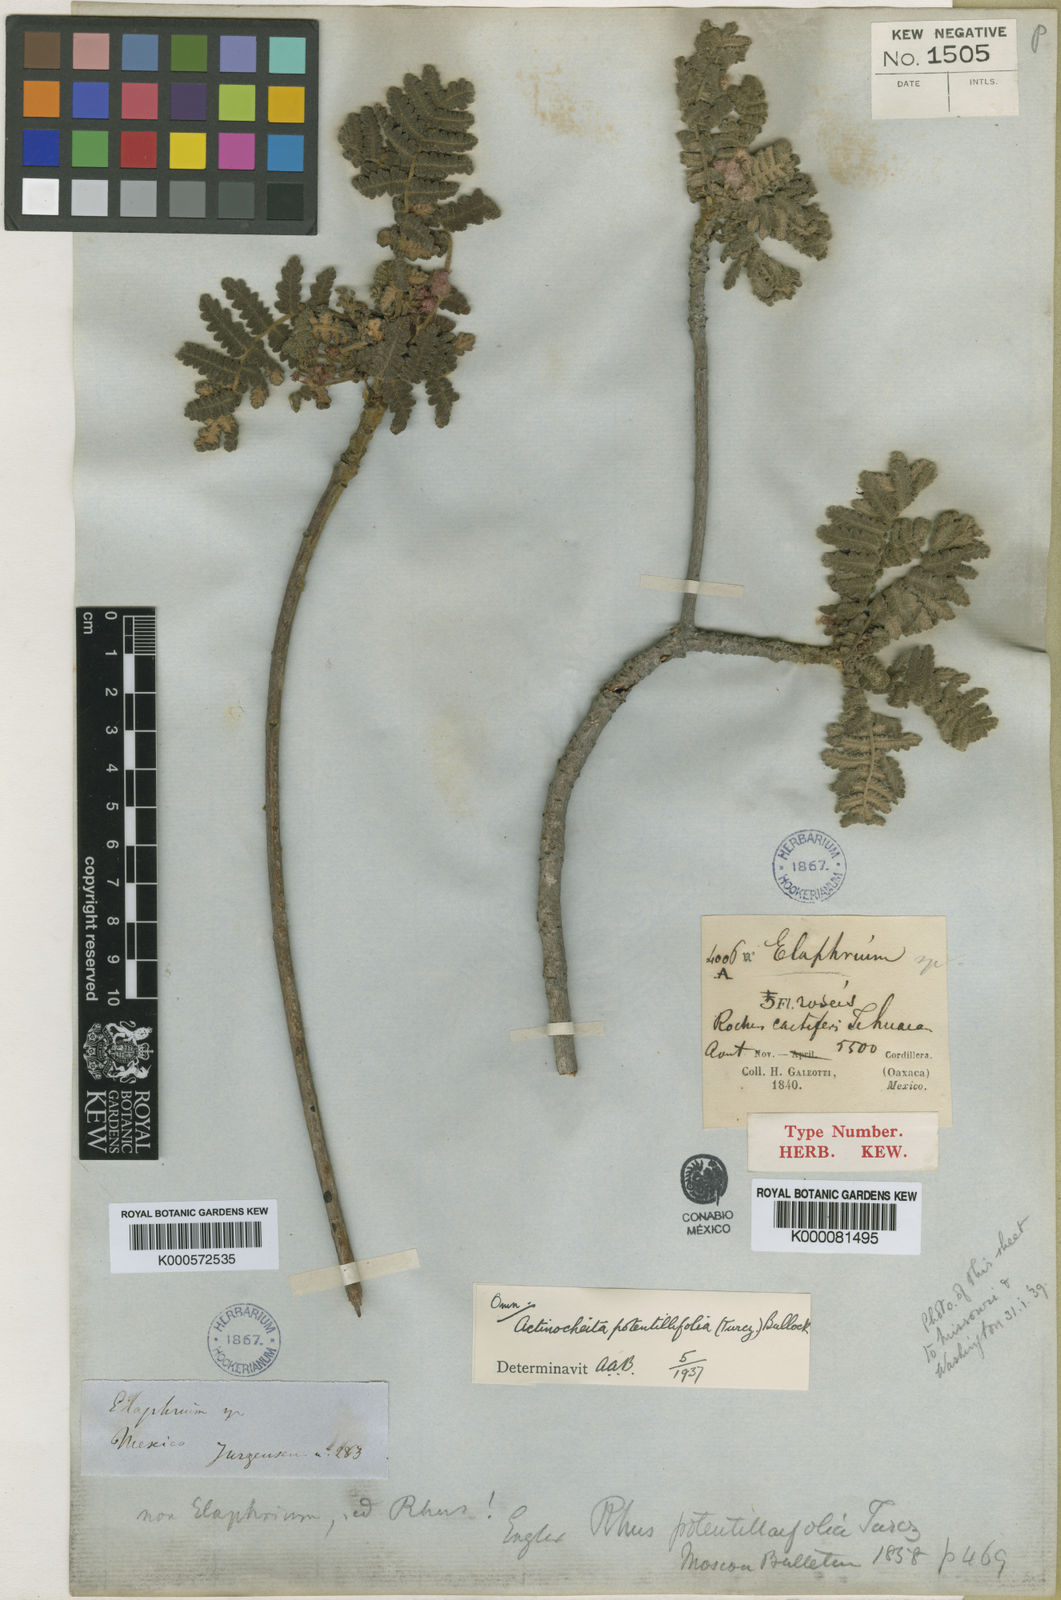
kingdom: Plantae
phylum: Tracheophyta
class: Magnoliopsida
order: Sapindales
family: Anacardiaceae
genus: Actinocheita
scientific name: Actinocheita filicina
